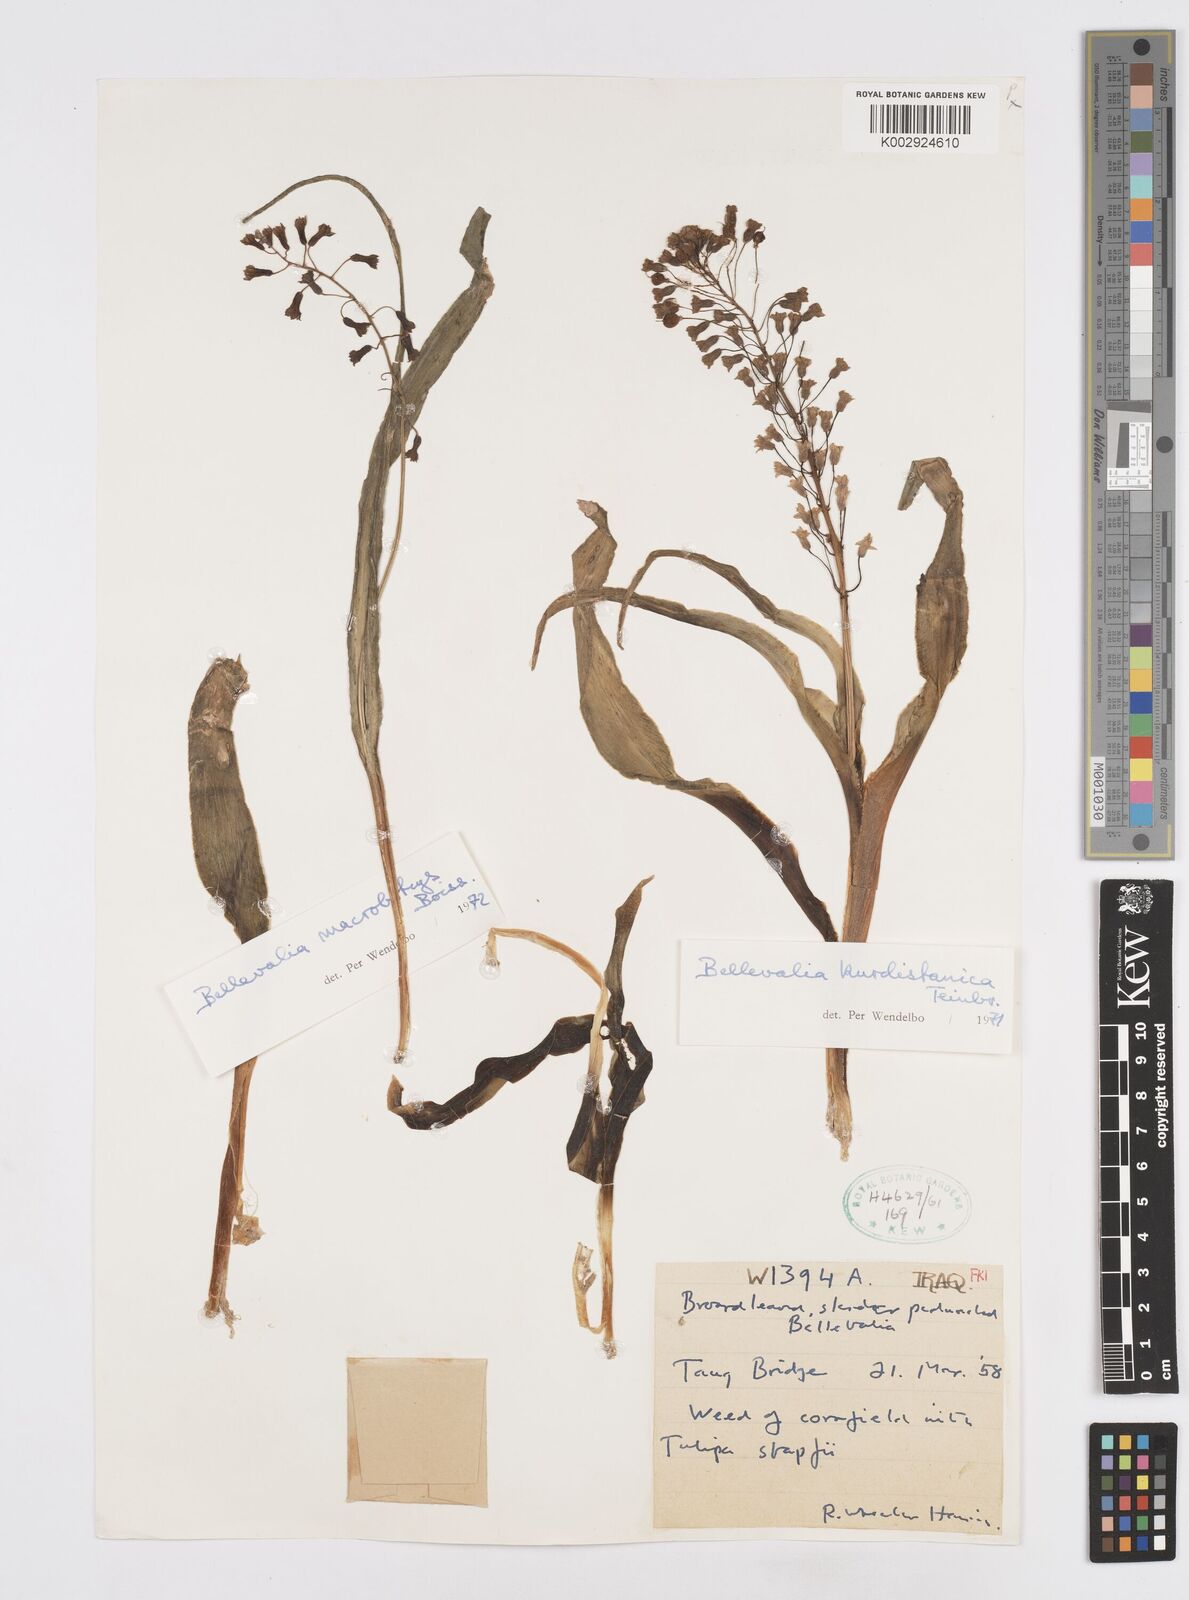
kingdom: Plantae
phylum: Tracheophyta
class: Liliopsida
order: Asparagales
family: Asparagaceae
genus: Bellevalia
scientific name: Bellevalia kurdistanica
